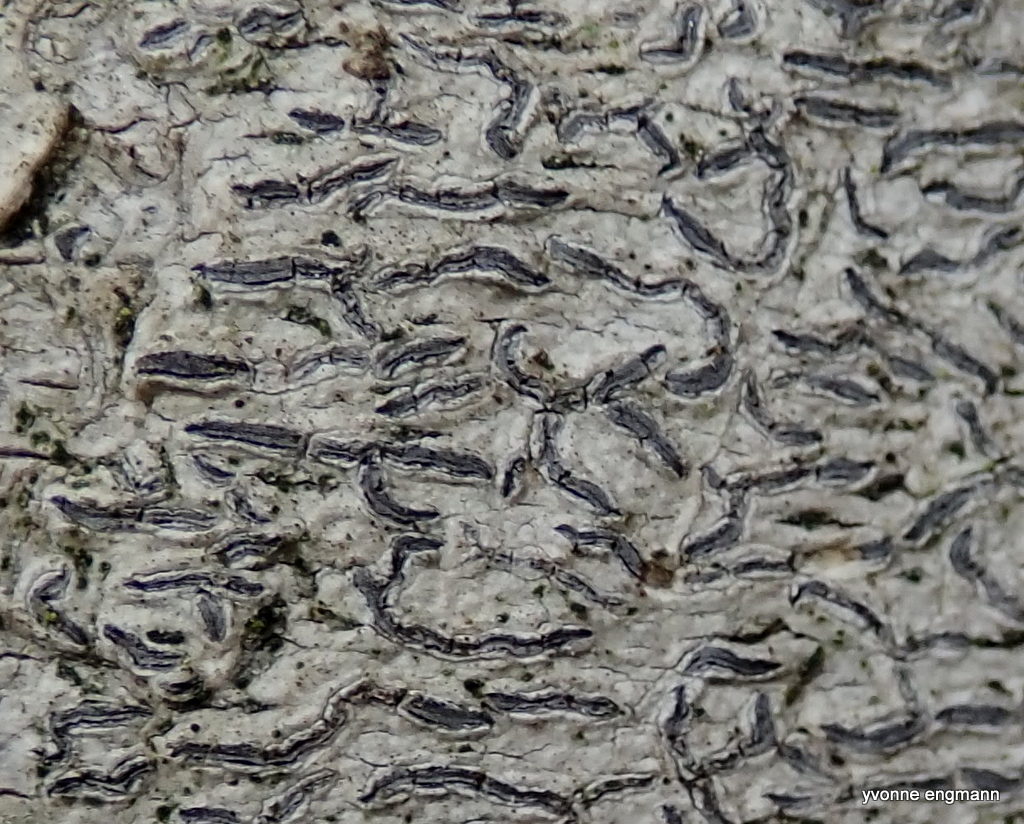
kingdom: Fungi
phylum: Ascomycota
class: Lecanoromycetes
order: Ostropales
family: Graphidaceae
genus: Graphis
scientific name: Graphis scripta
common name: almindelig skriftlav
